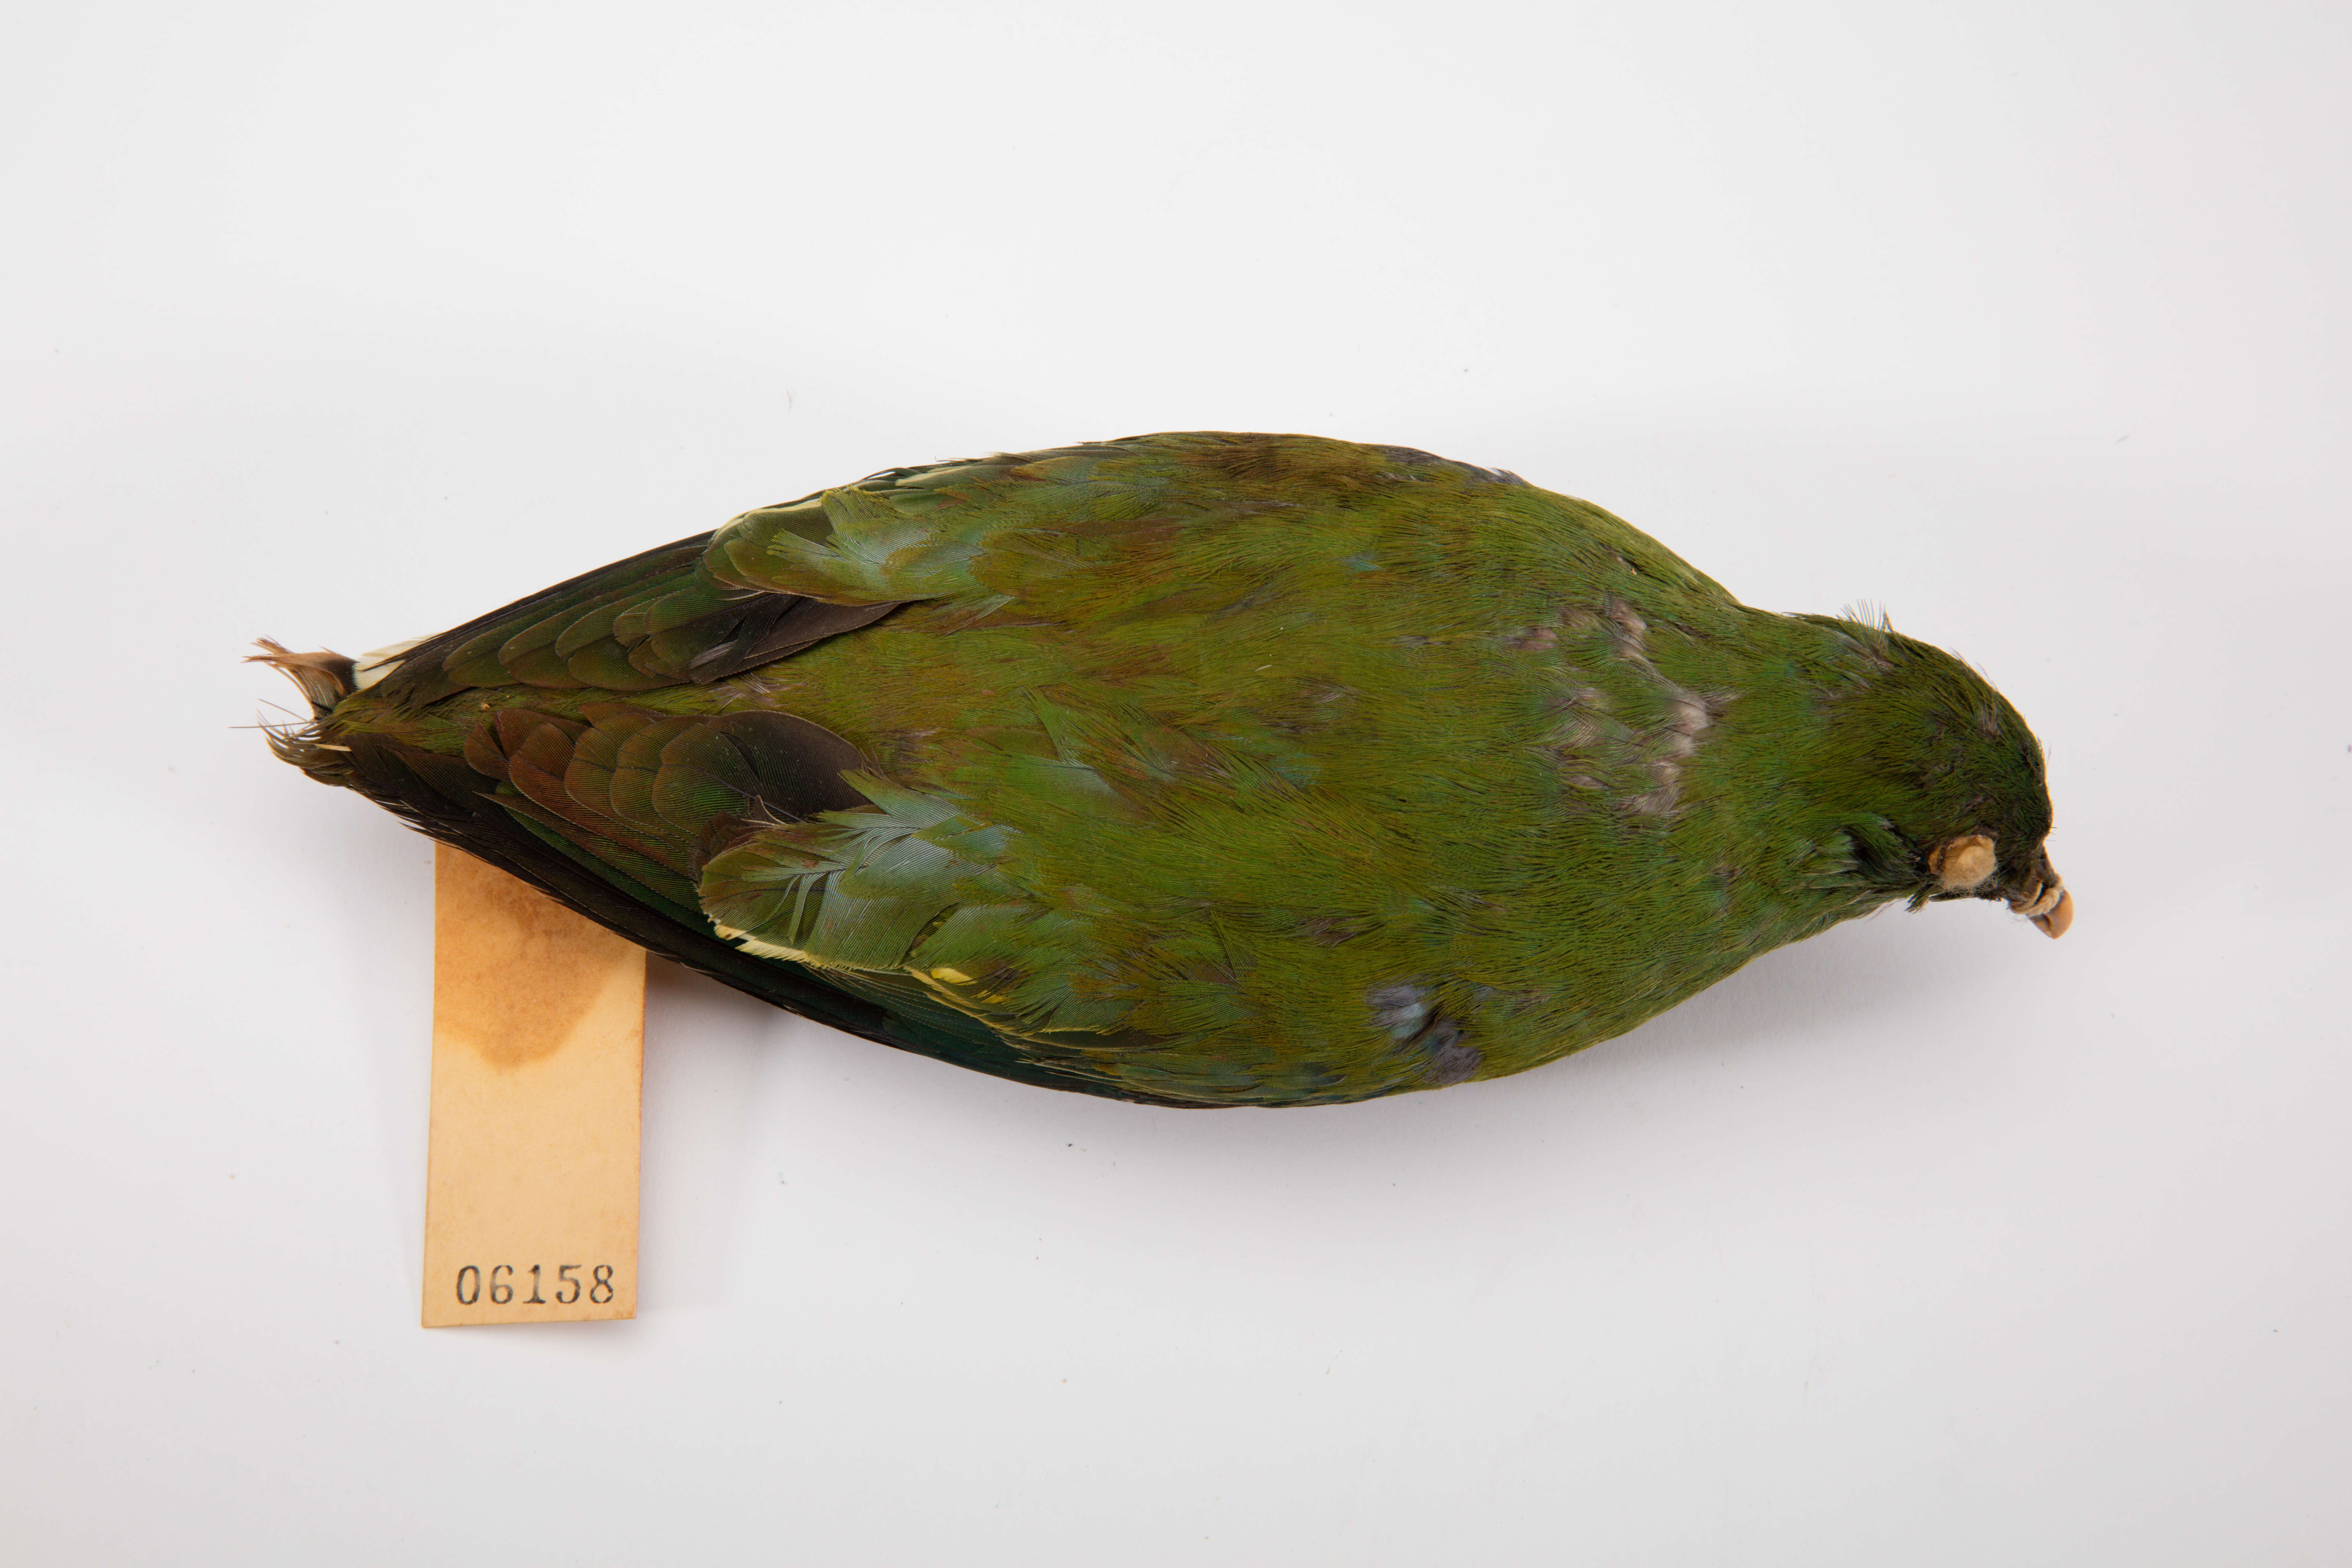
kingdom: Animalia
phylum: Chordata
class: Aves
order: Columbiformes
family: Columbidae
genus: Ptilinopus
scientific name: Ptilinopus iozonus
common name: Orange-bellied fruit dove
